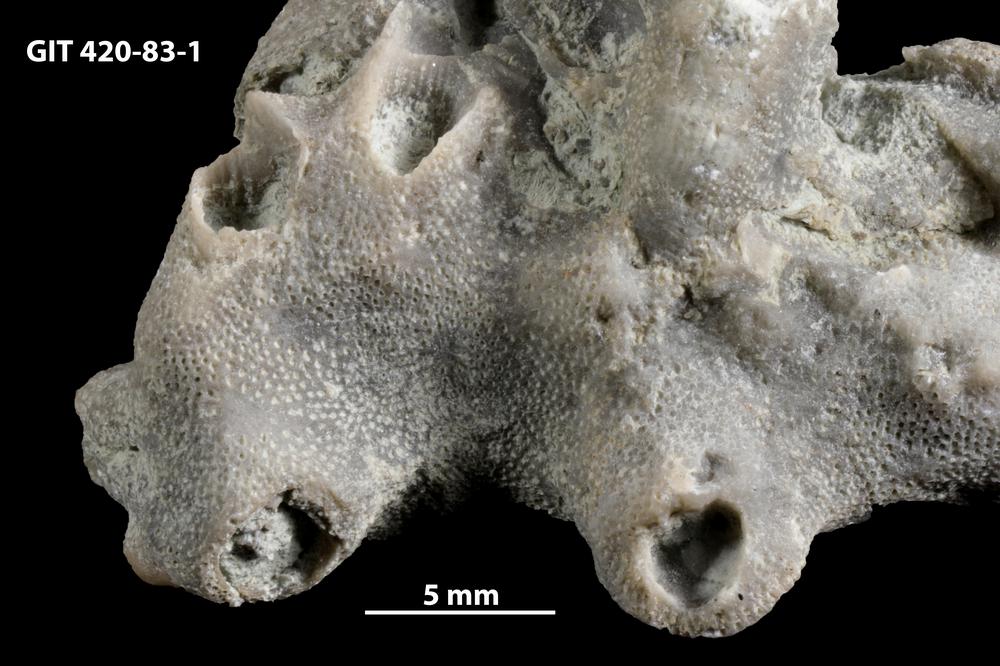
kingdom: Animalia
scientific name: Animalia
